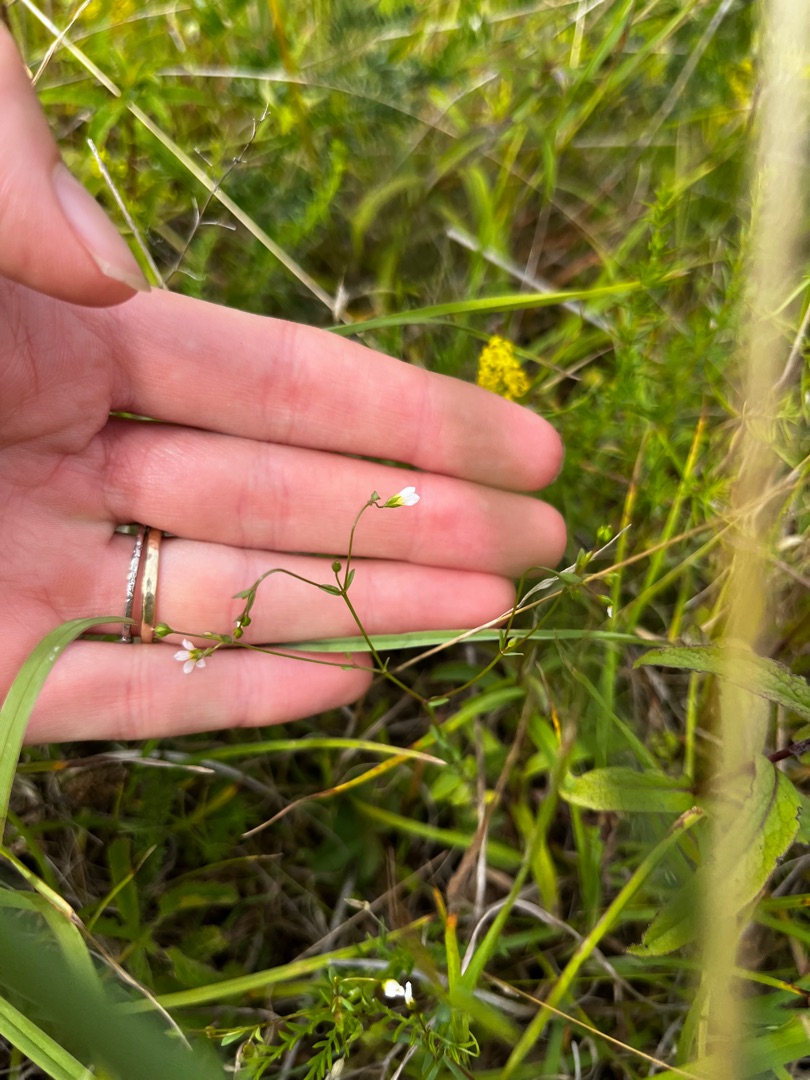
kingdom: Plantae
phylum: Tracheophyta
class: Magnoliopsida
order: Malpighiales
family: Linaceae
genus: Linum
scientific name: Linum catharticum
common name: Vild hør
